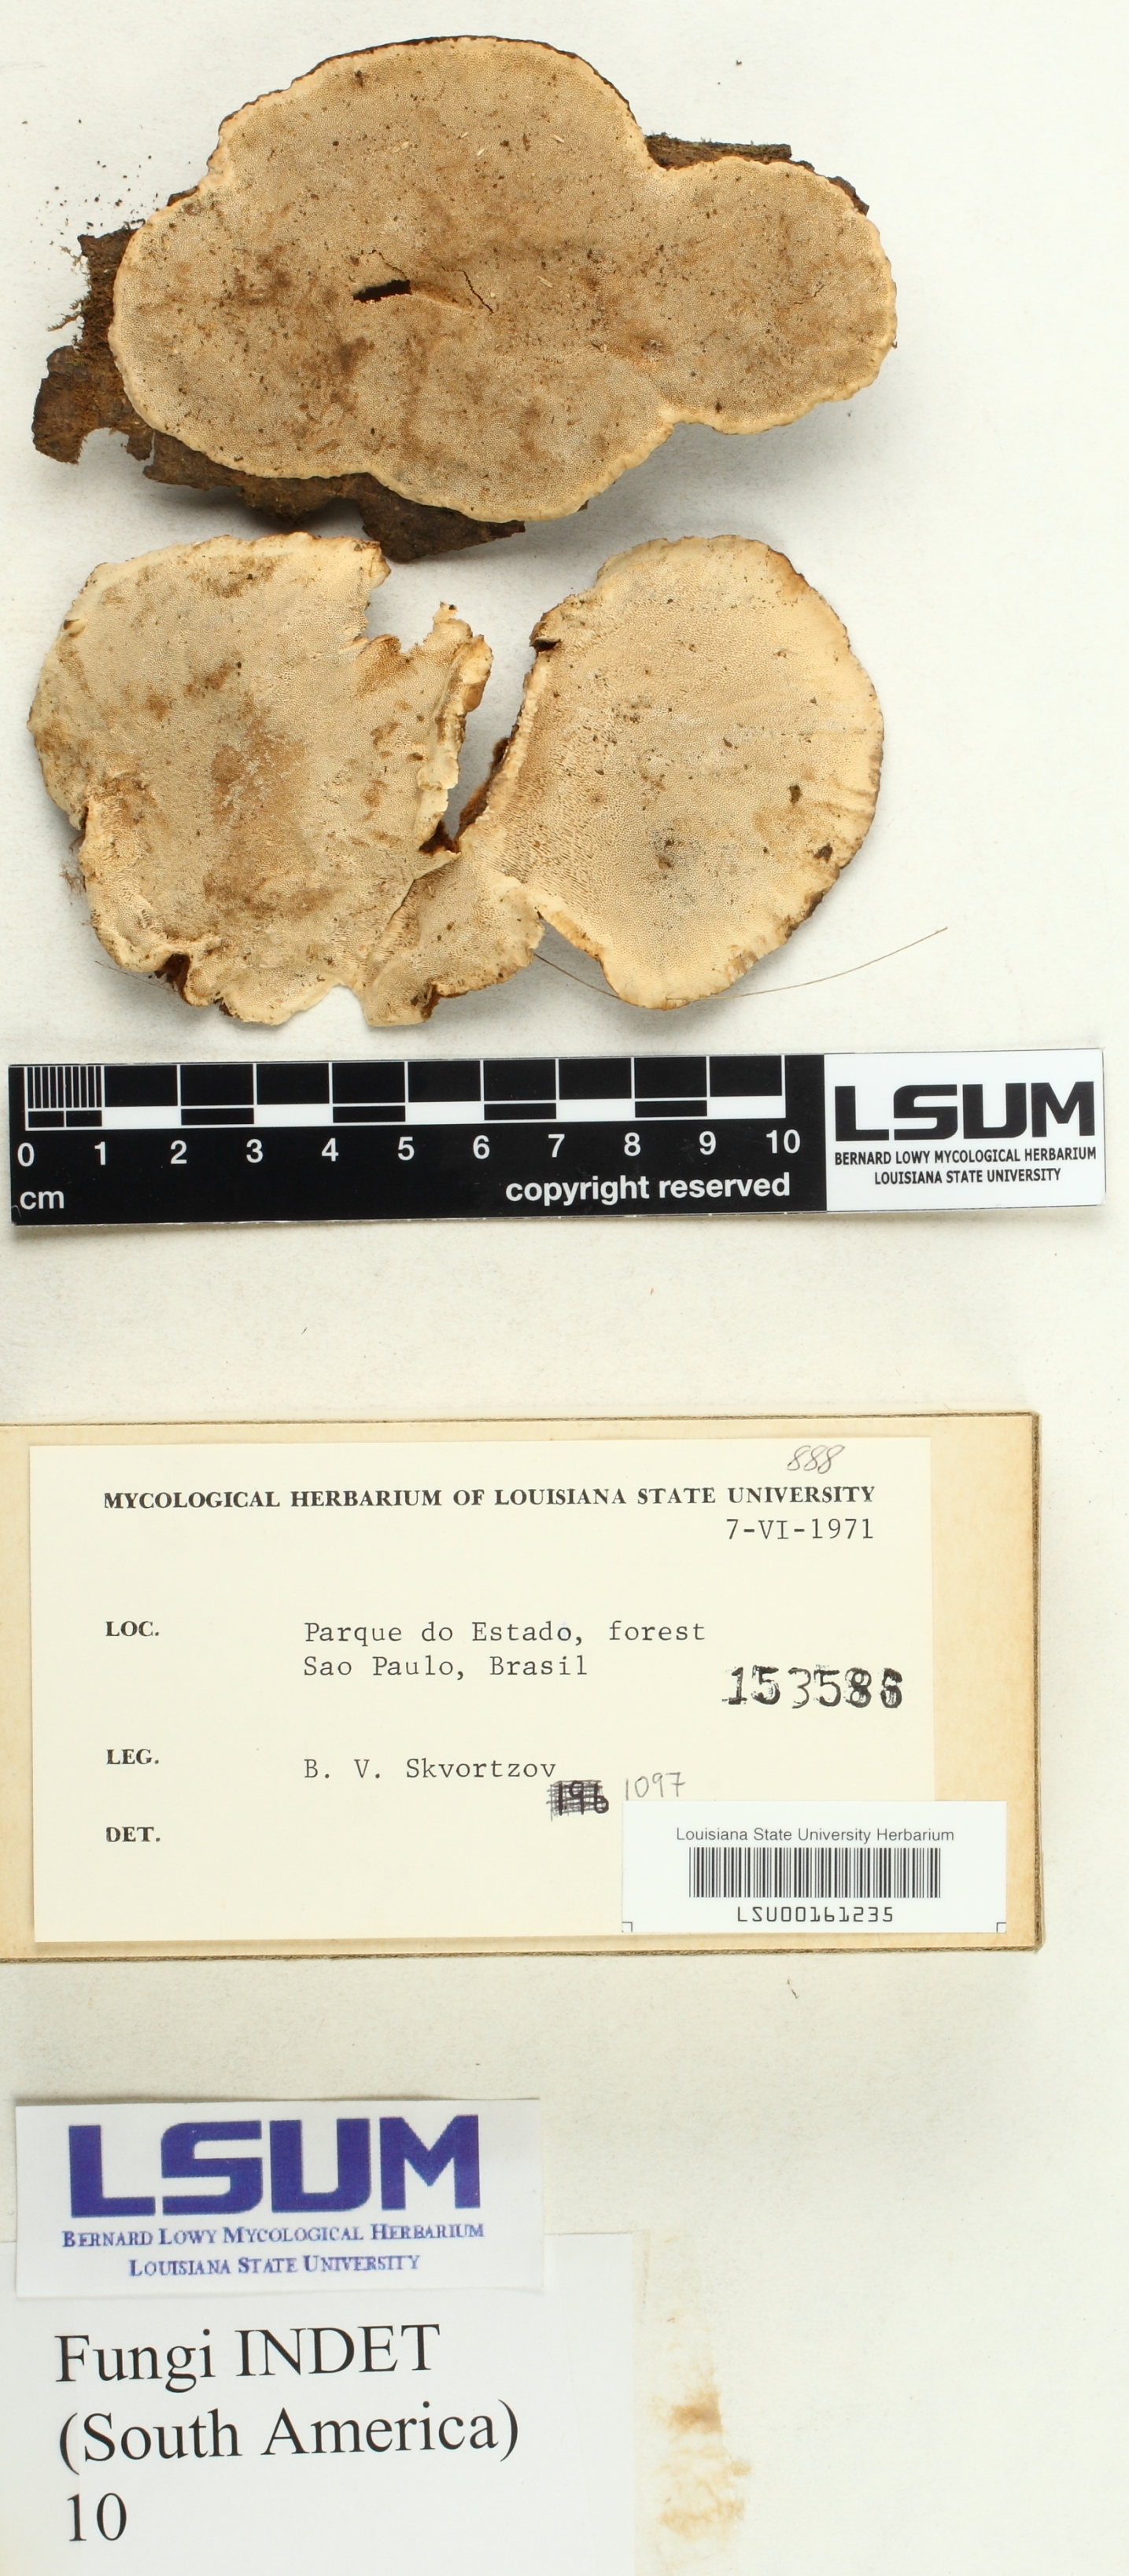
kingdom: Fungi
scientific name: Fungi
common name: Fungi
